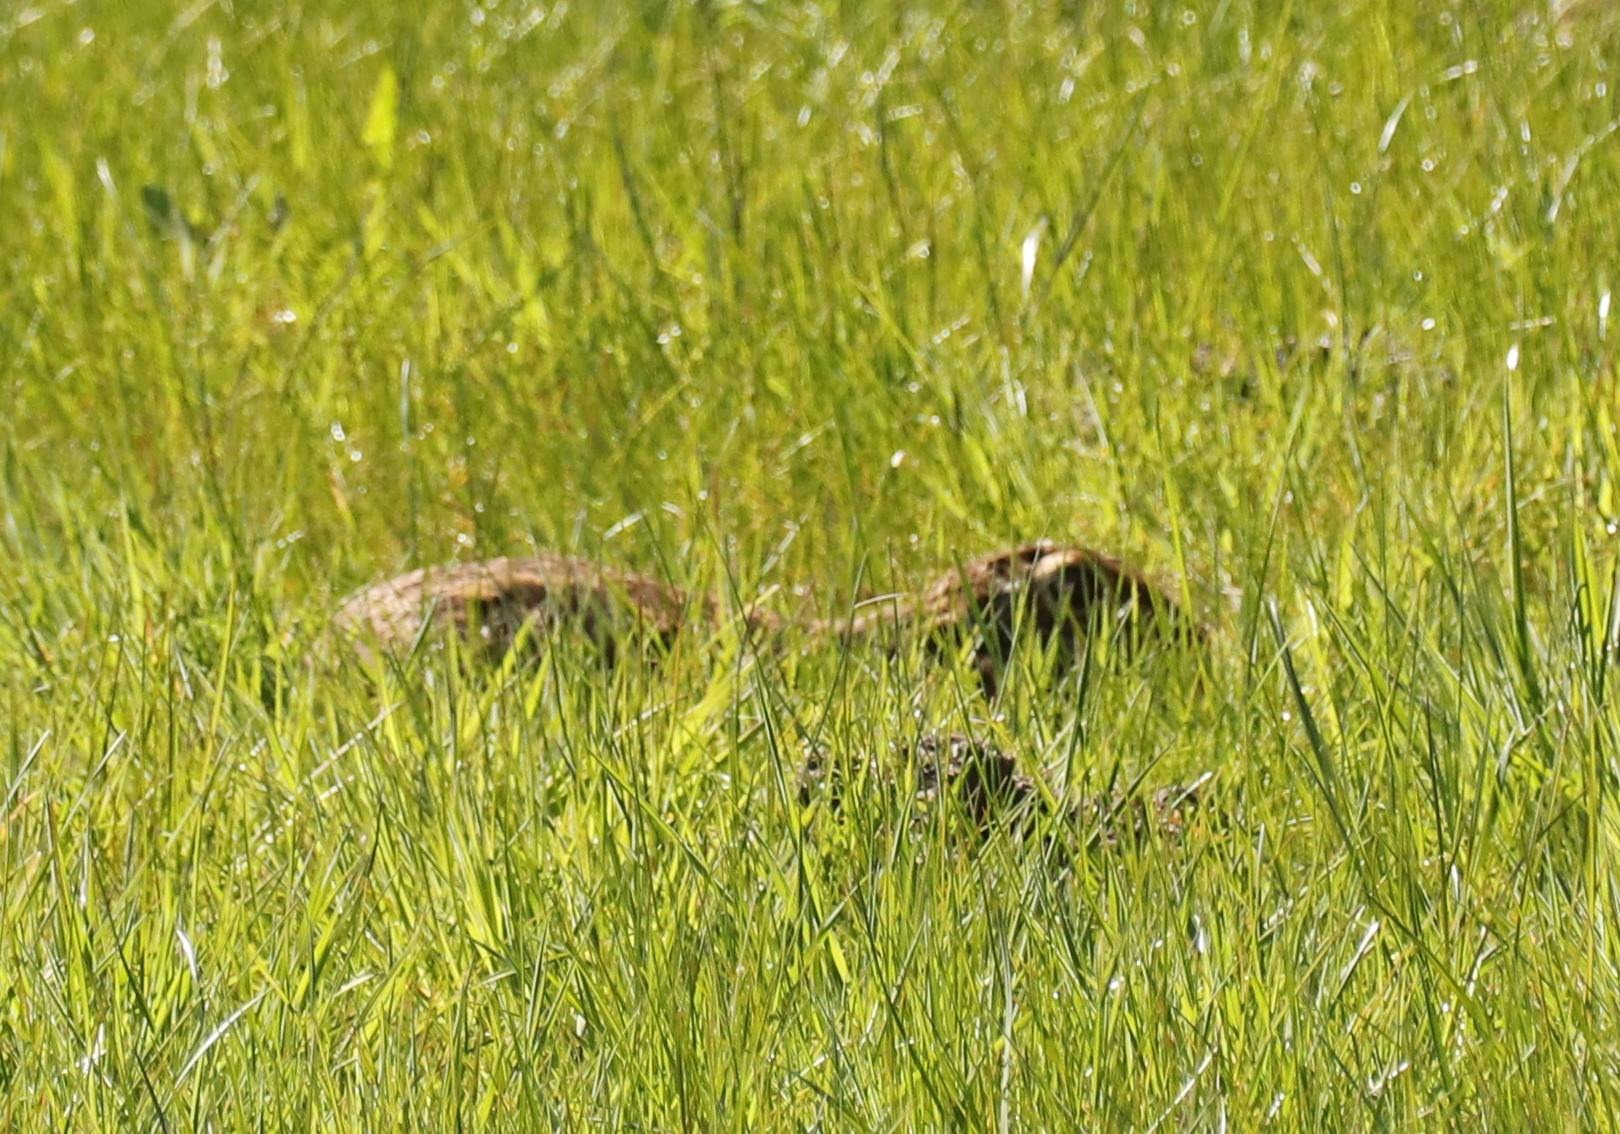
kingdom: Animalia
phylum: Chordata
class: Mammalia
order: Lagomorpha
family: Leporidae
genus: Lepus
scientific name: Lepus europaeus
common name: Hare
